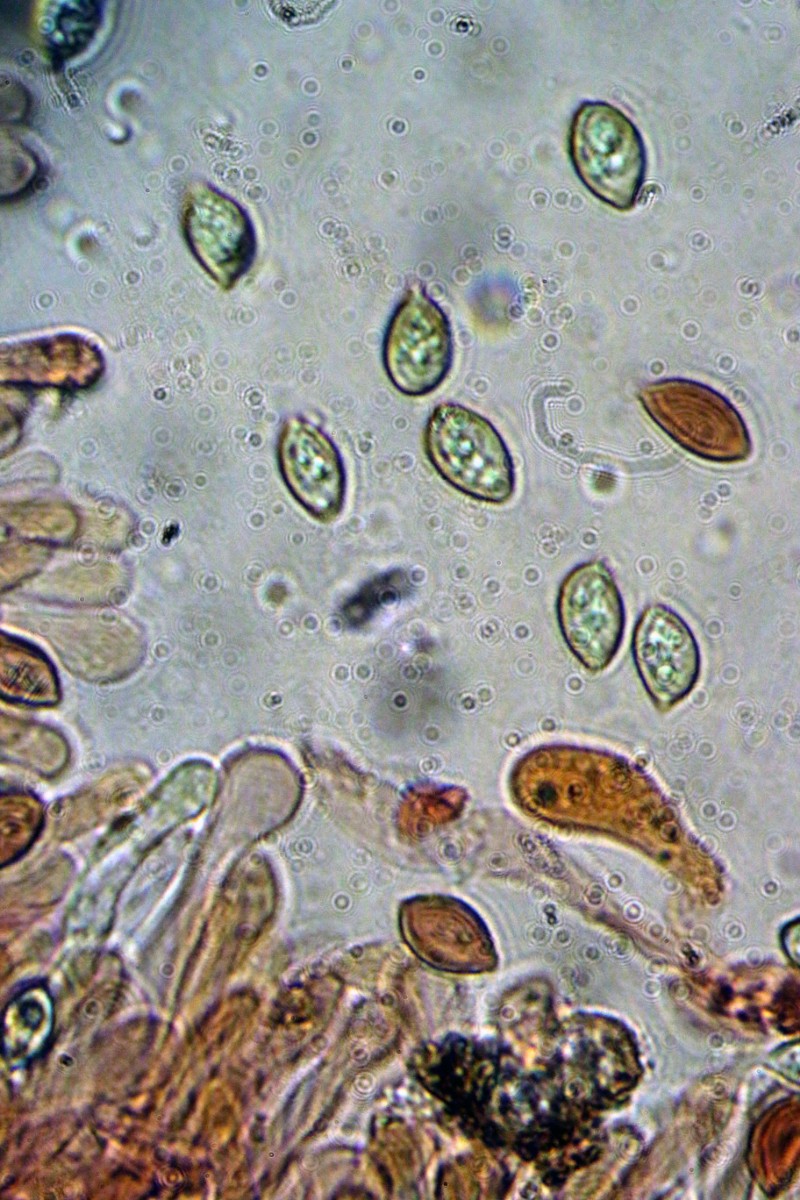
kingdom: Fungi
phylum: Basidiomycota
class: Agaricomycetes
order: Agaricales
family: Hymenogastraceae
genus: Galerina
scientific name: Galerina hypnorum
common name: mos-hjelmhat
